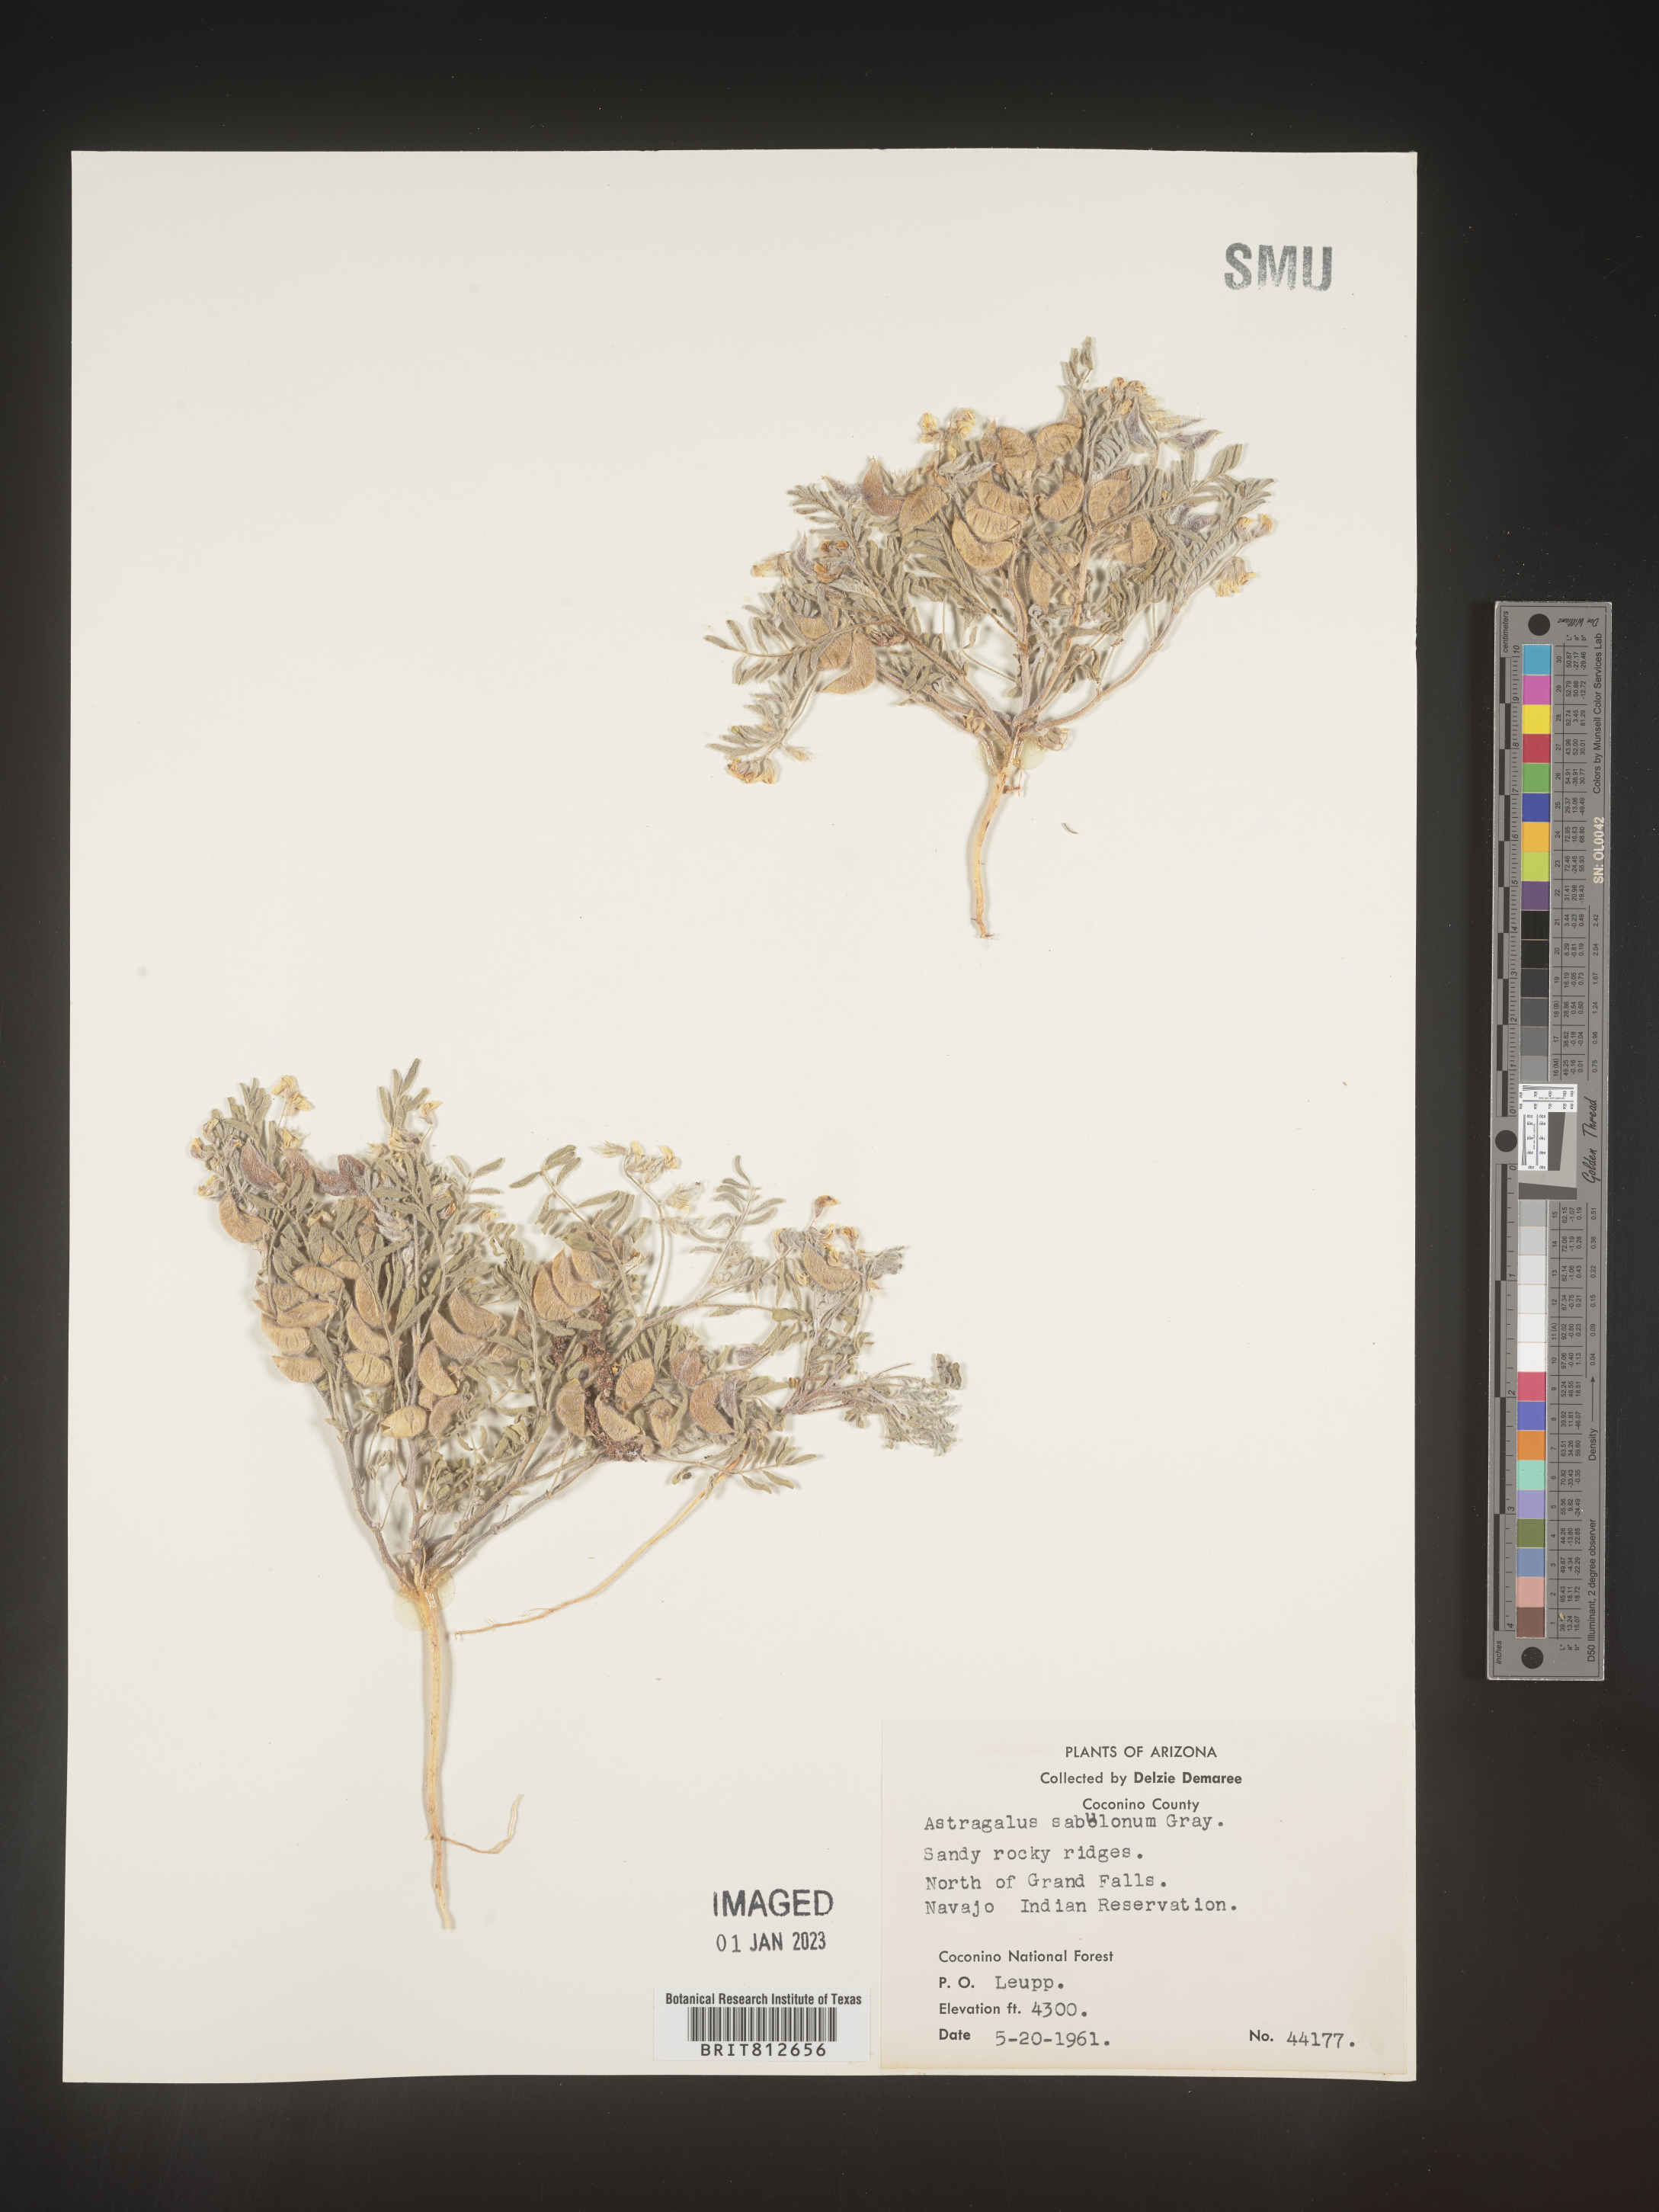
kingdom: Plantae
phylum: Tracheophyta
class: Magnoliopsida
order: Fabales
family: Fabaceae
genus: Astragalus
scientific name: Astragalus
